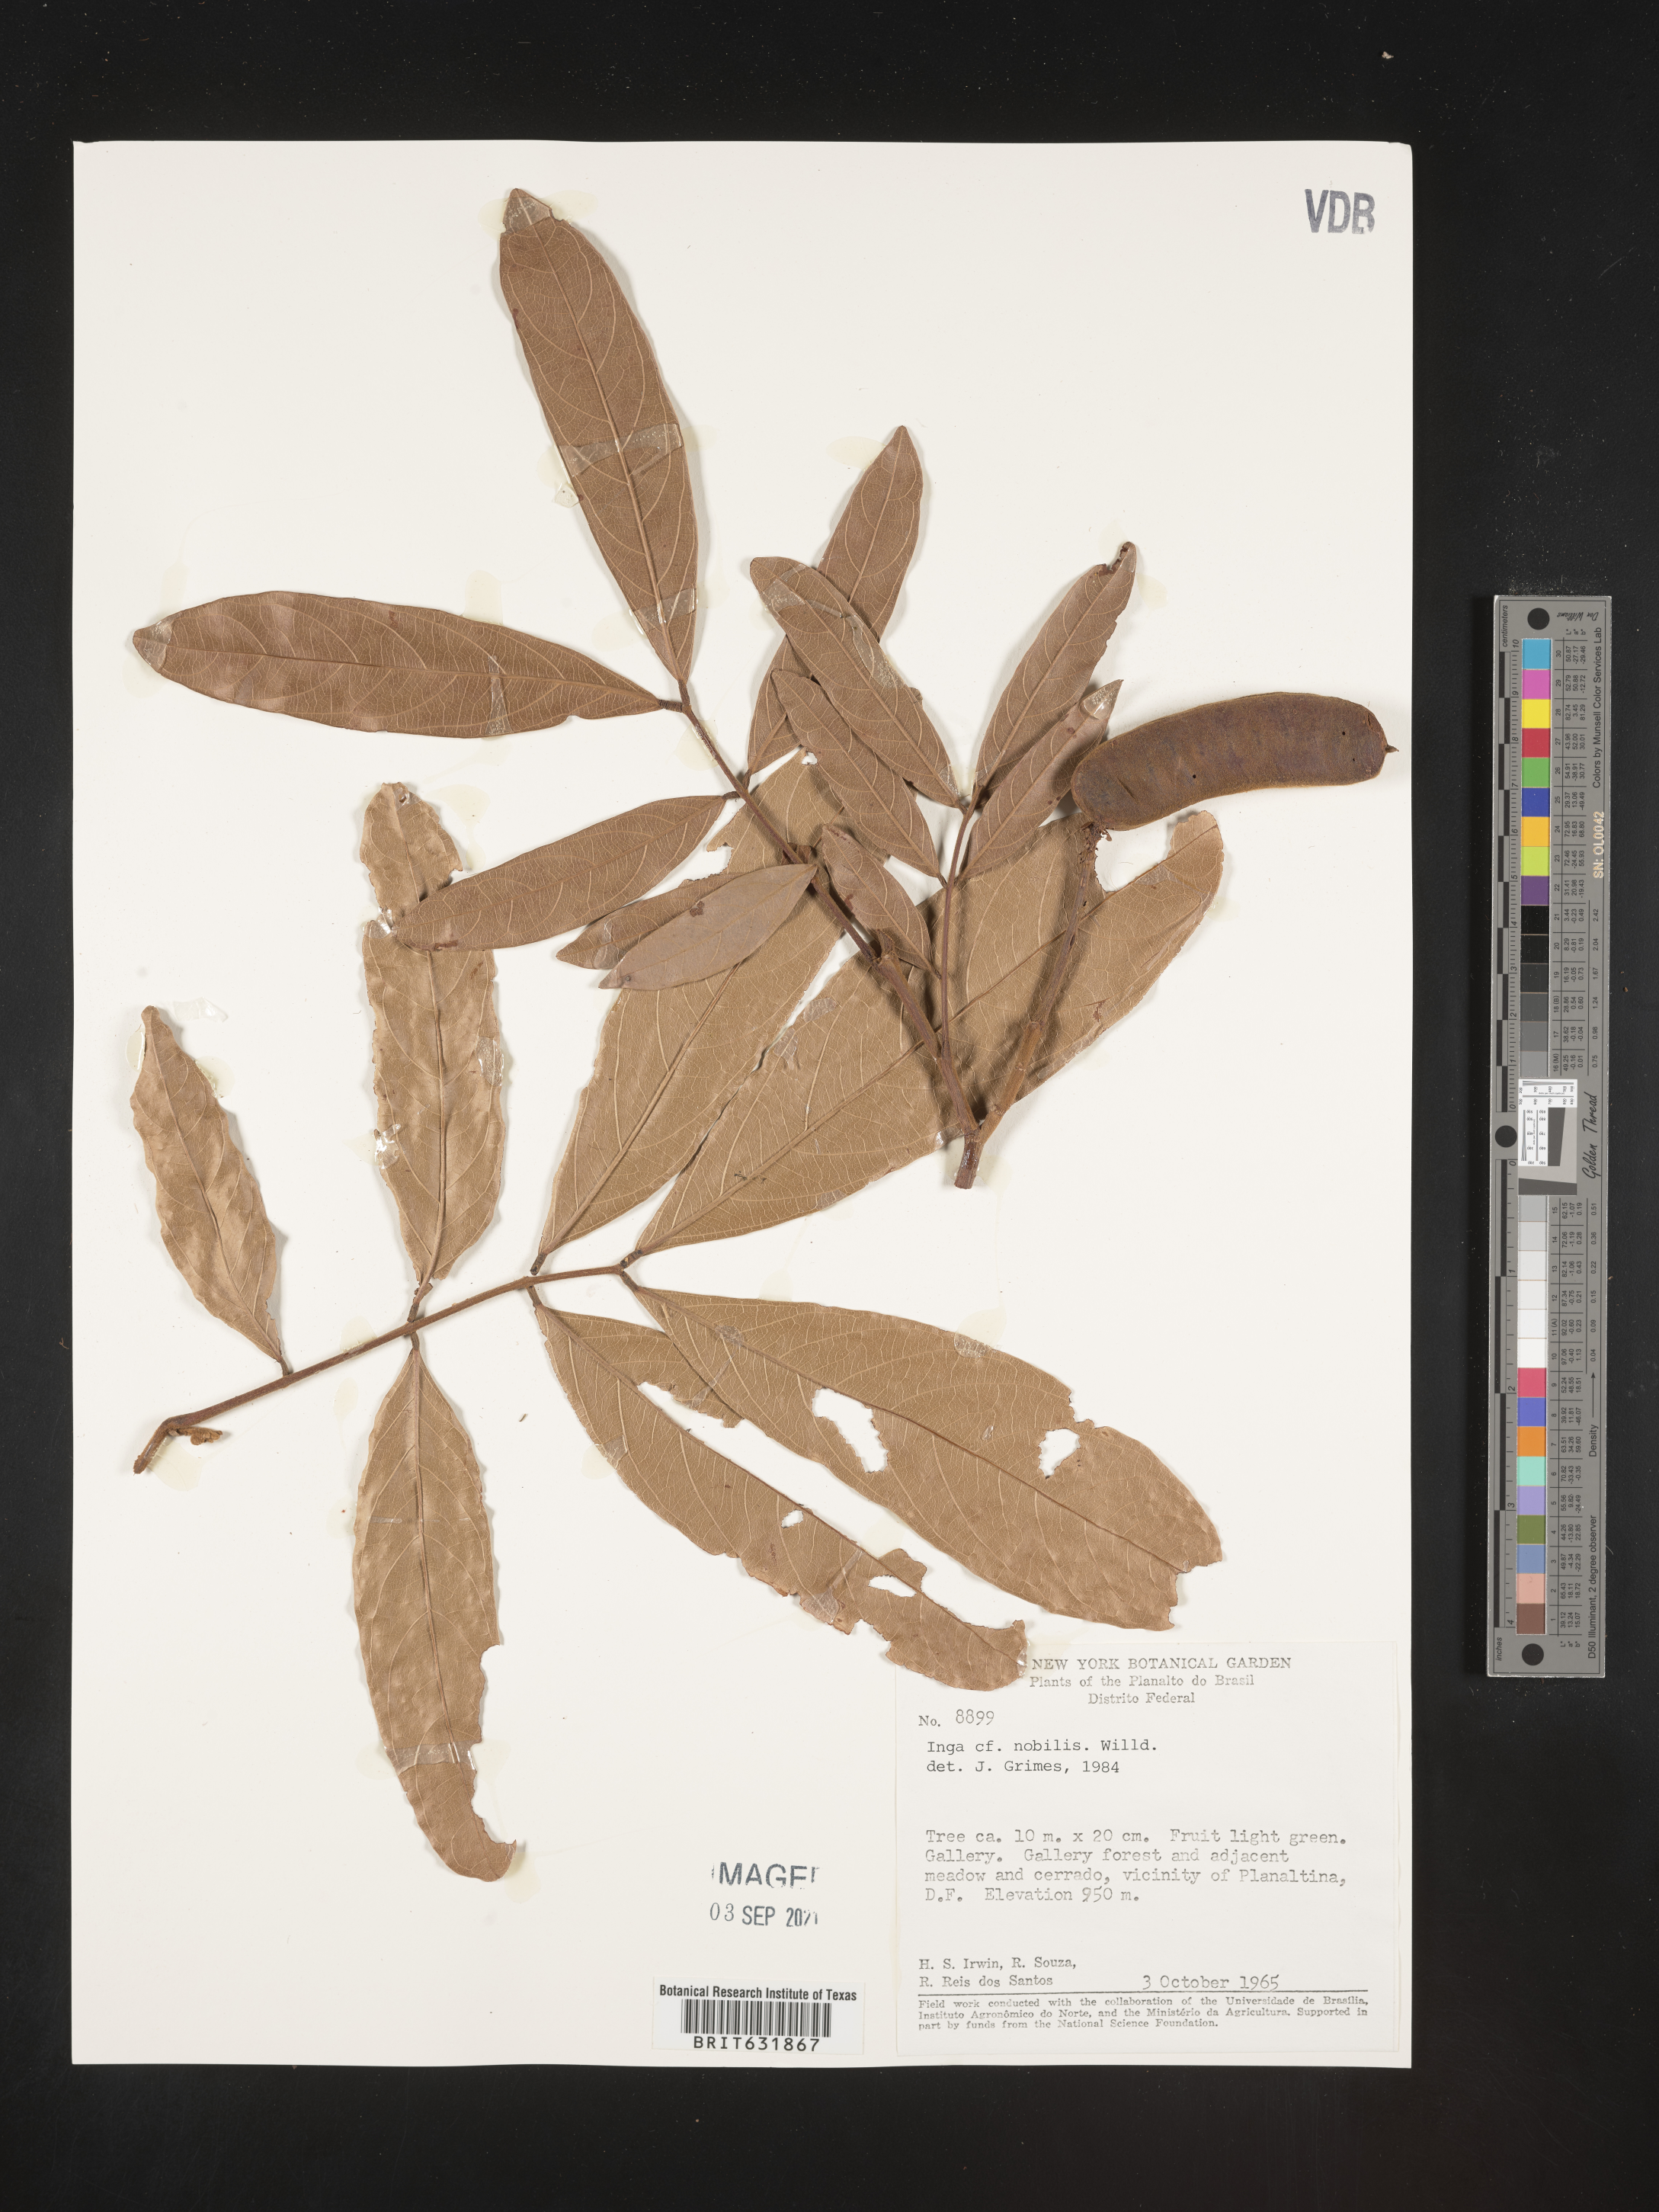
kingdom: Plantae
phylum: Tracheophyta
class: Magnoliopsida
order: Fabales
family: Fabaceae
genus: Inga
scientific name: Inga
